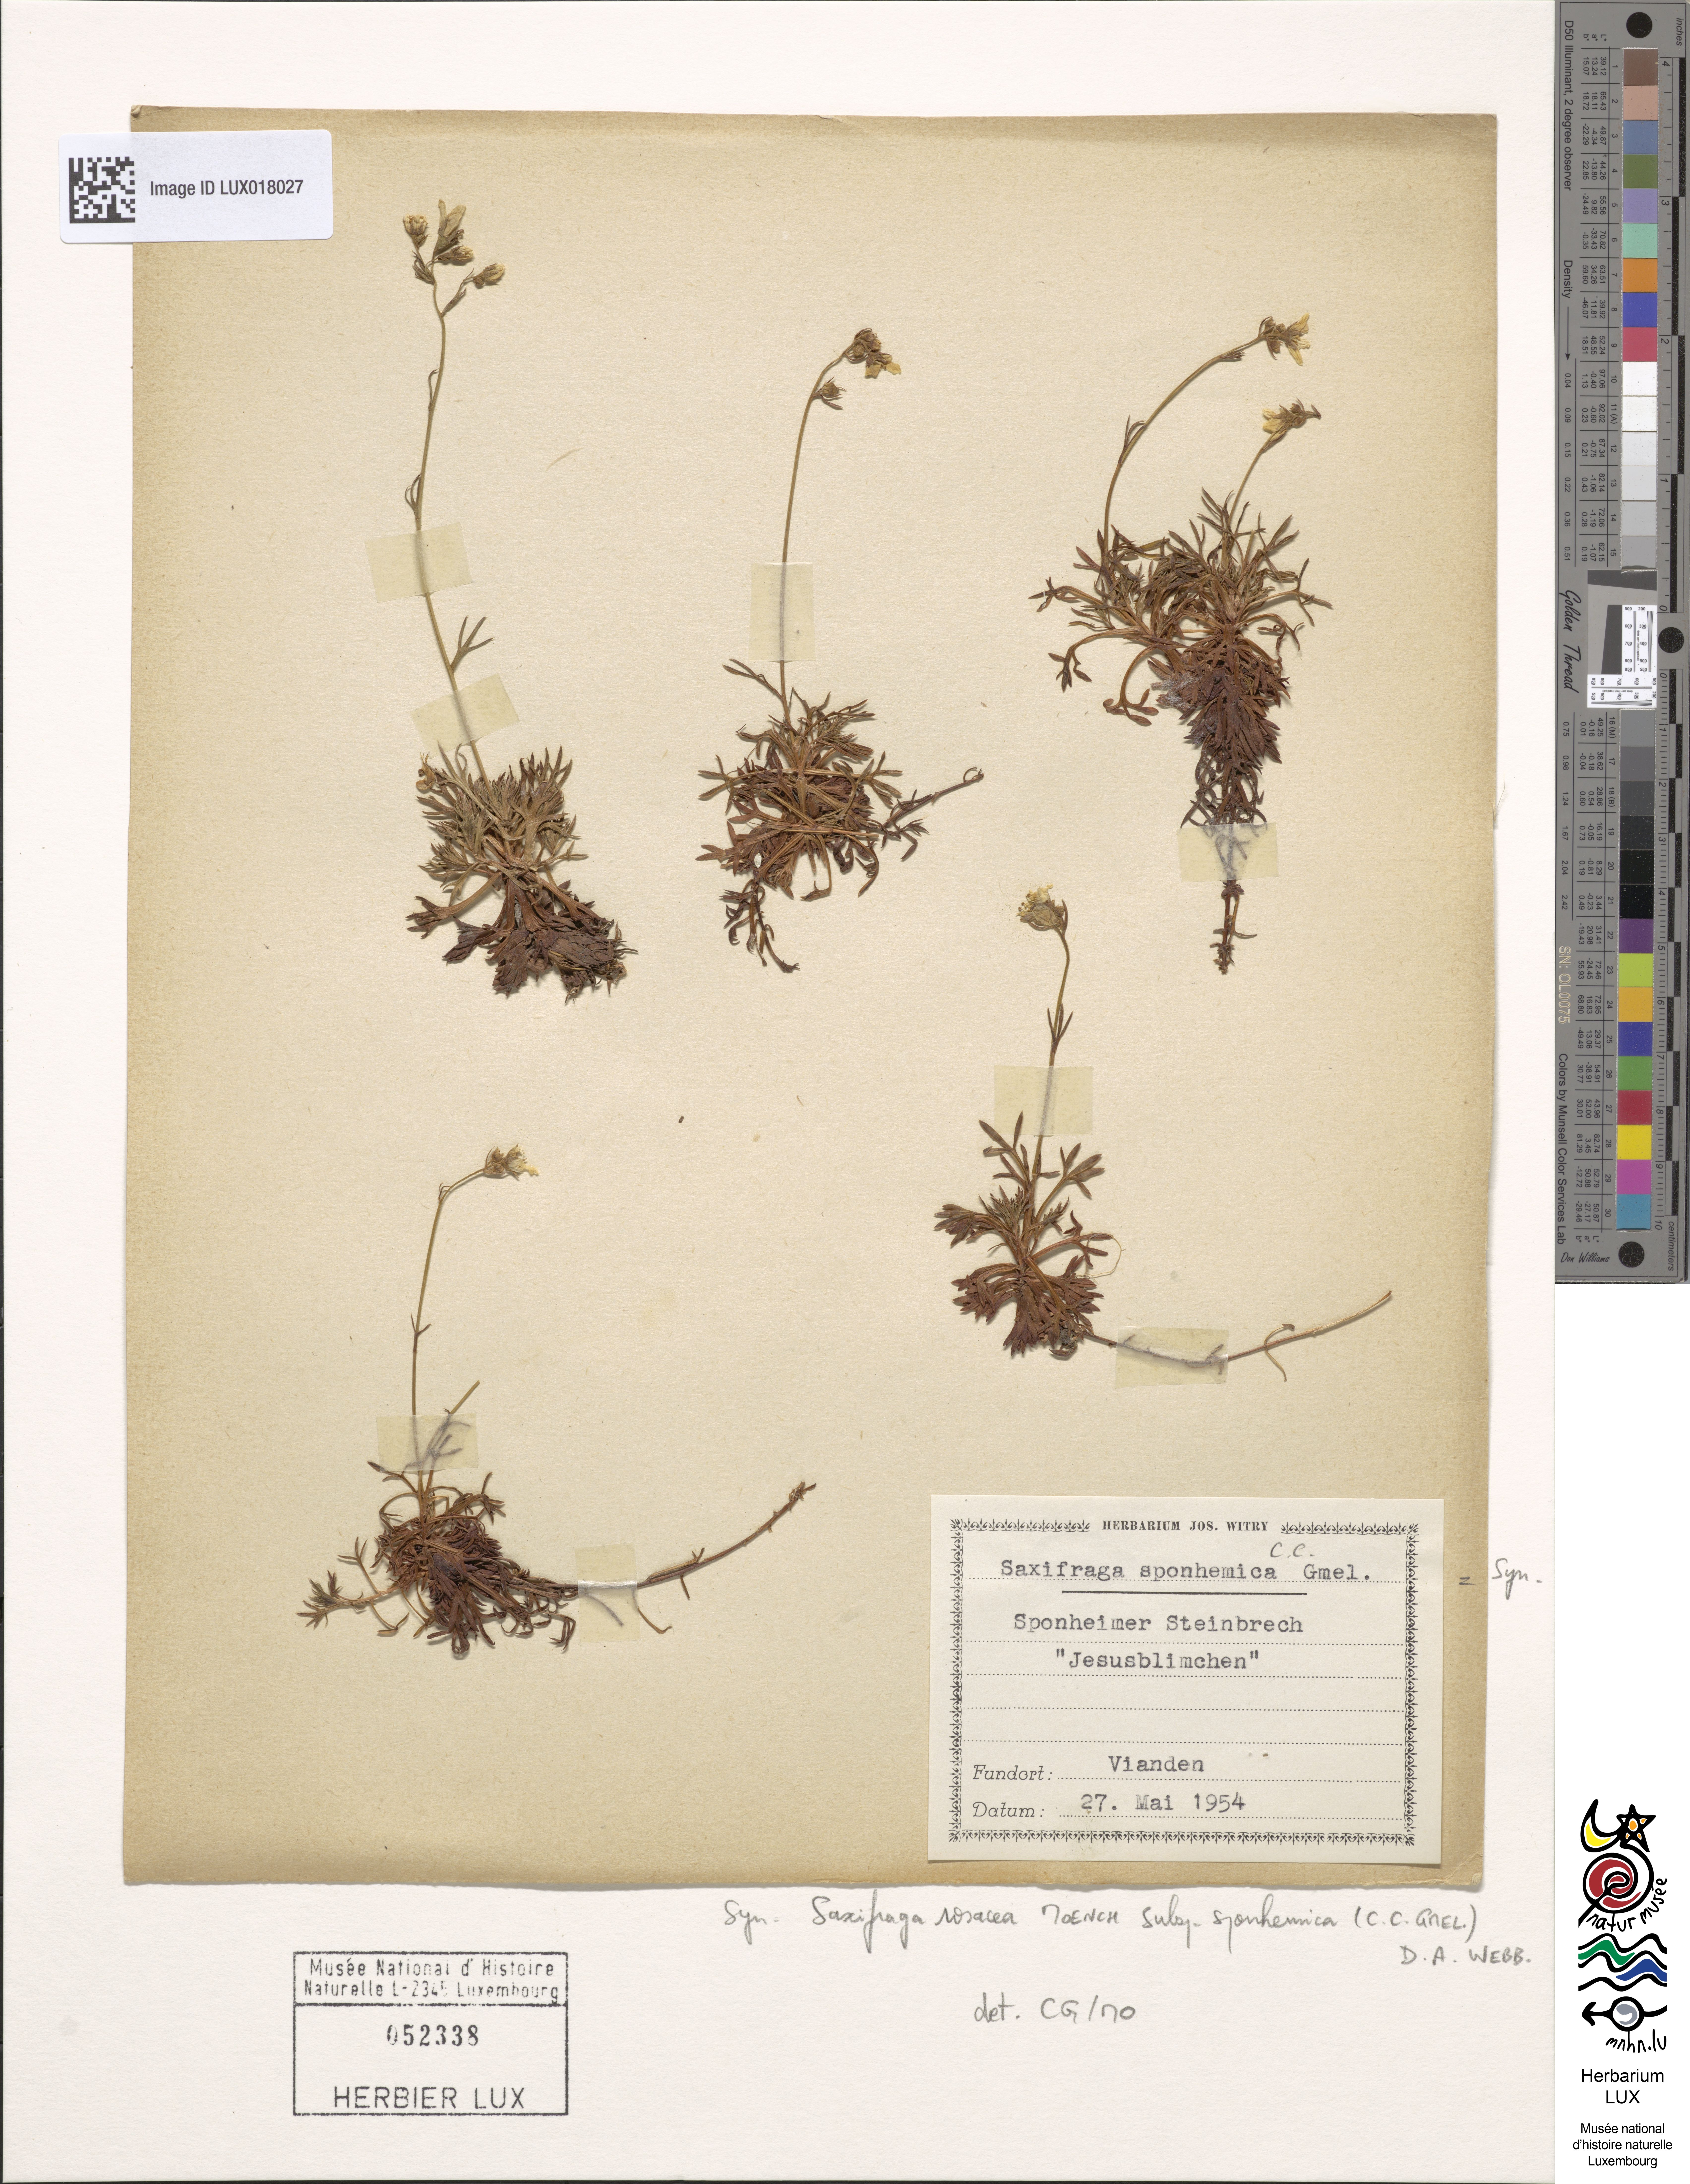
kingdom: Plantae
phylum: Tracheophyta
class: Magnoliopsida
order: Saxifragales
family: Saxifragaceae
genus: Saxifraga
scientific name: Saxifraga rosacea
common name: Irish saxifrage
